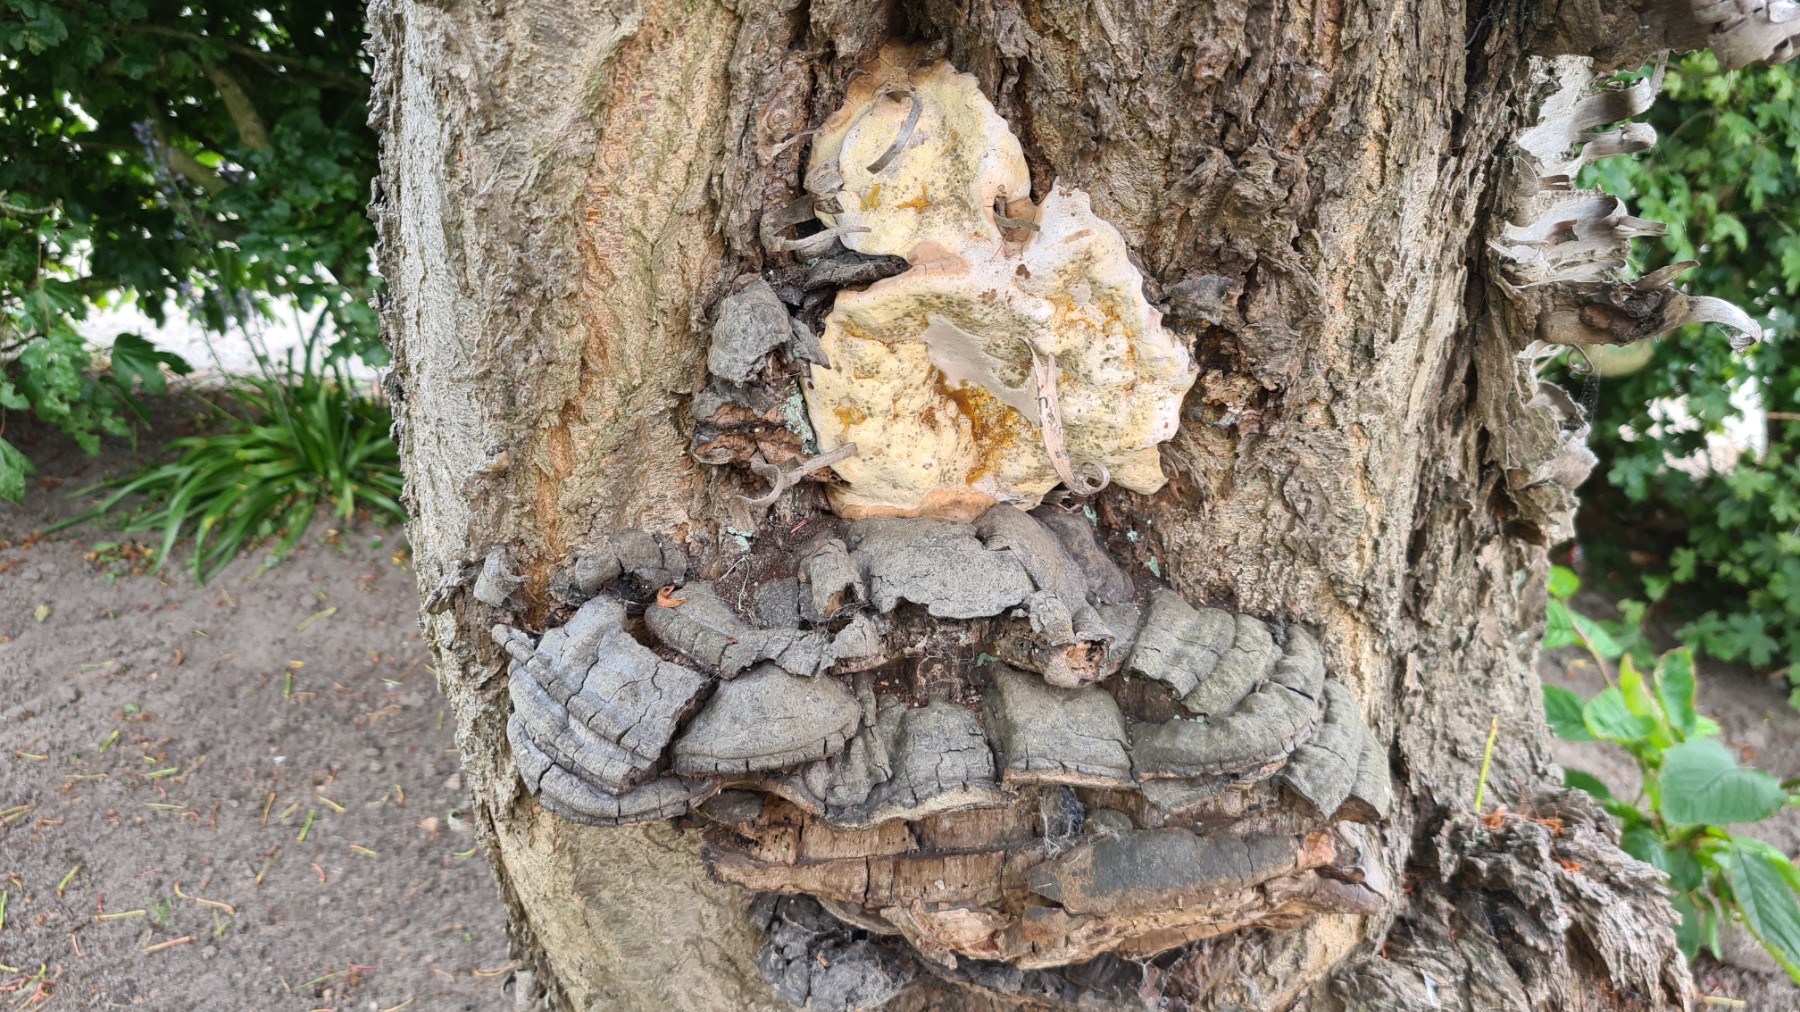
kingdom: Fungi
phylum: Basidiomycota
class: Agaricomycetes
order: Polyporales
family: Polyporaceae
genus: Ganoderma
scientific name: Ganoderma pfeifferi
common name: kobberrød lakporesvamp
